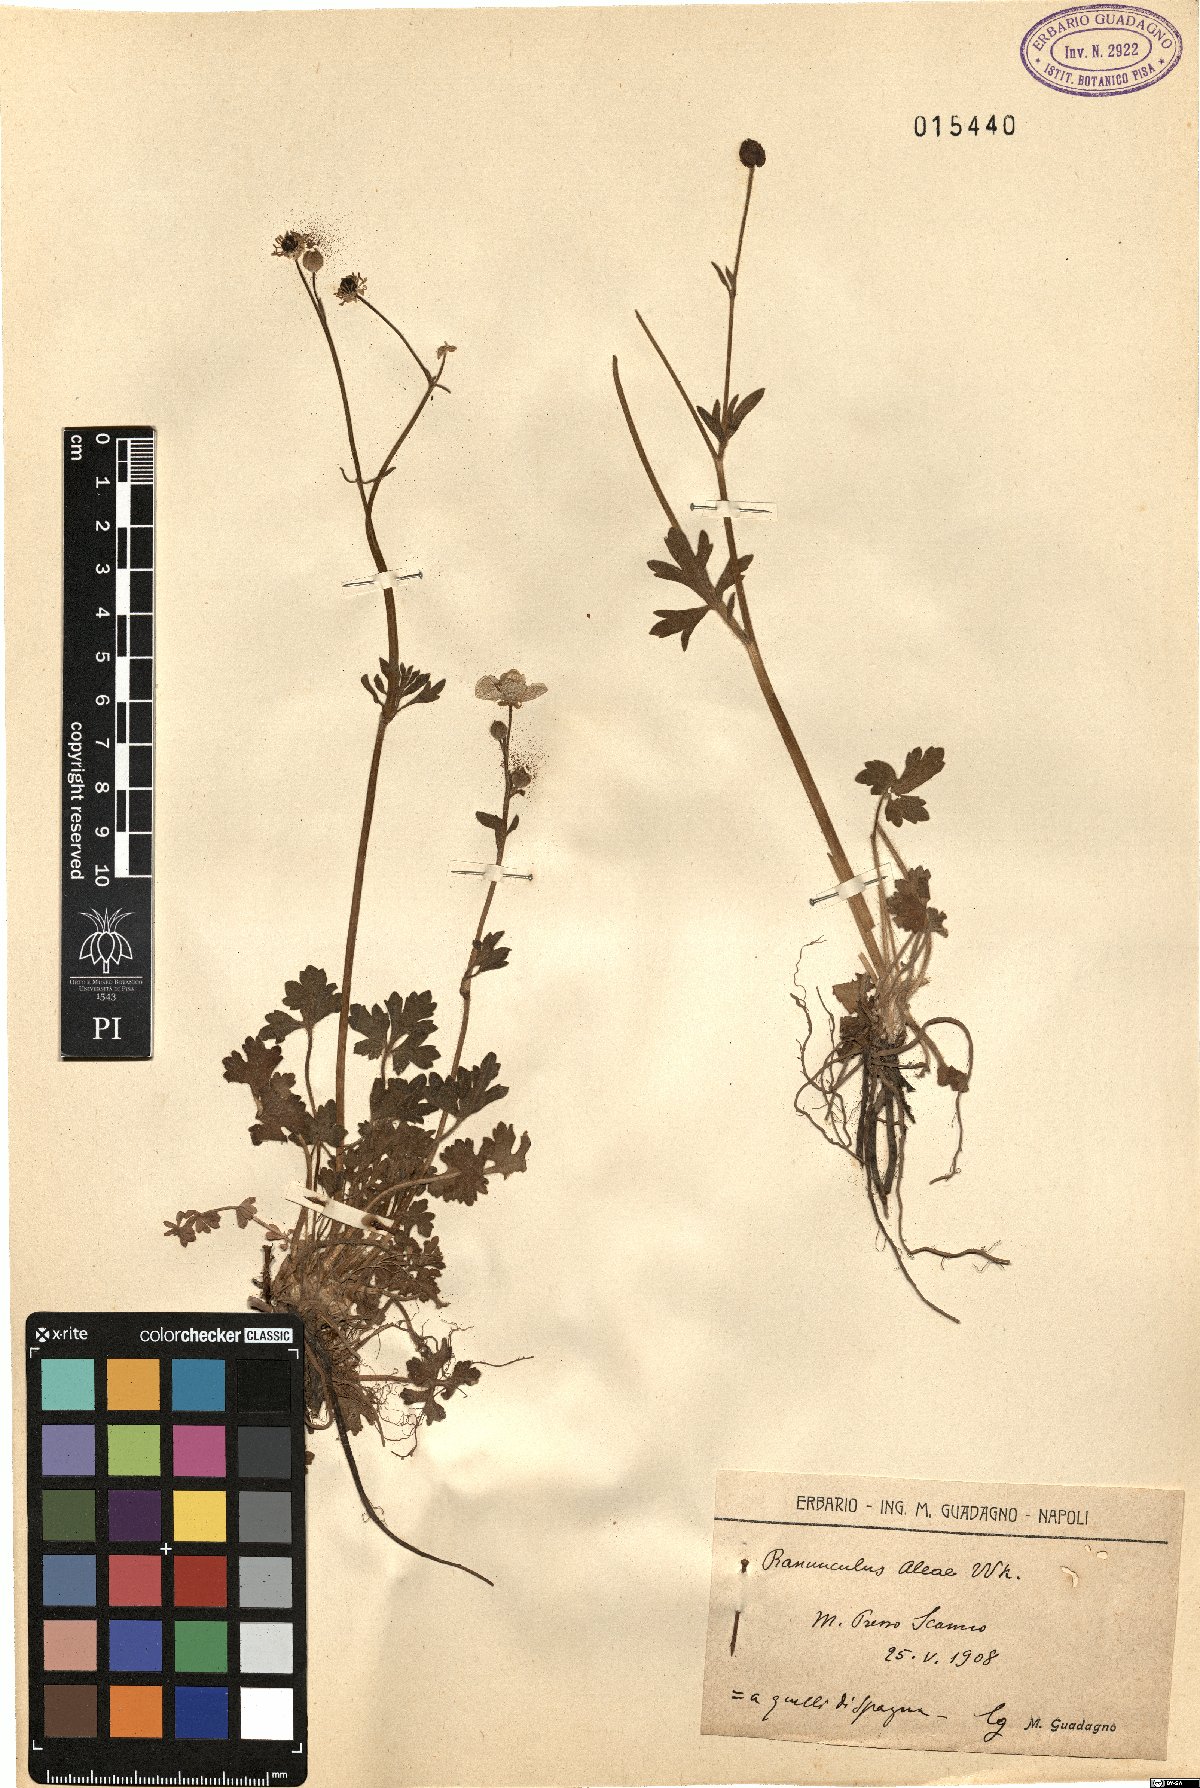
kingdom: Plantae
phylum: Tracheophyta
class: Magnoliopsida
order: Ranunculales
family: Ranunculaceae
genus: Ranunculus
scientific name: Ranunculus neapolitanus
